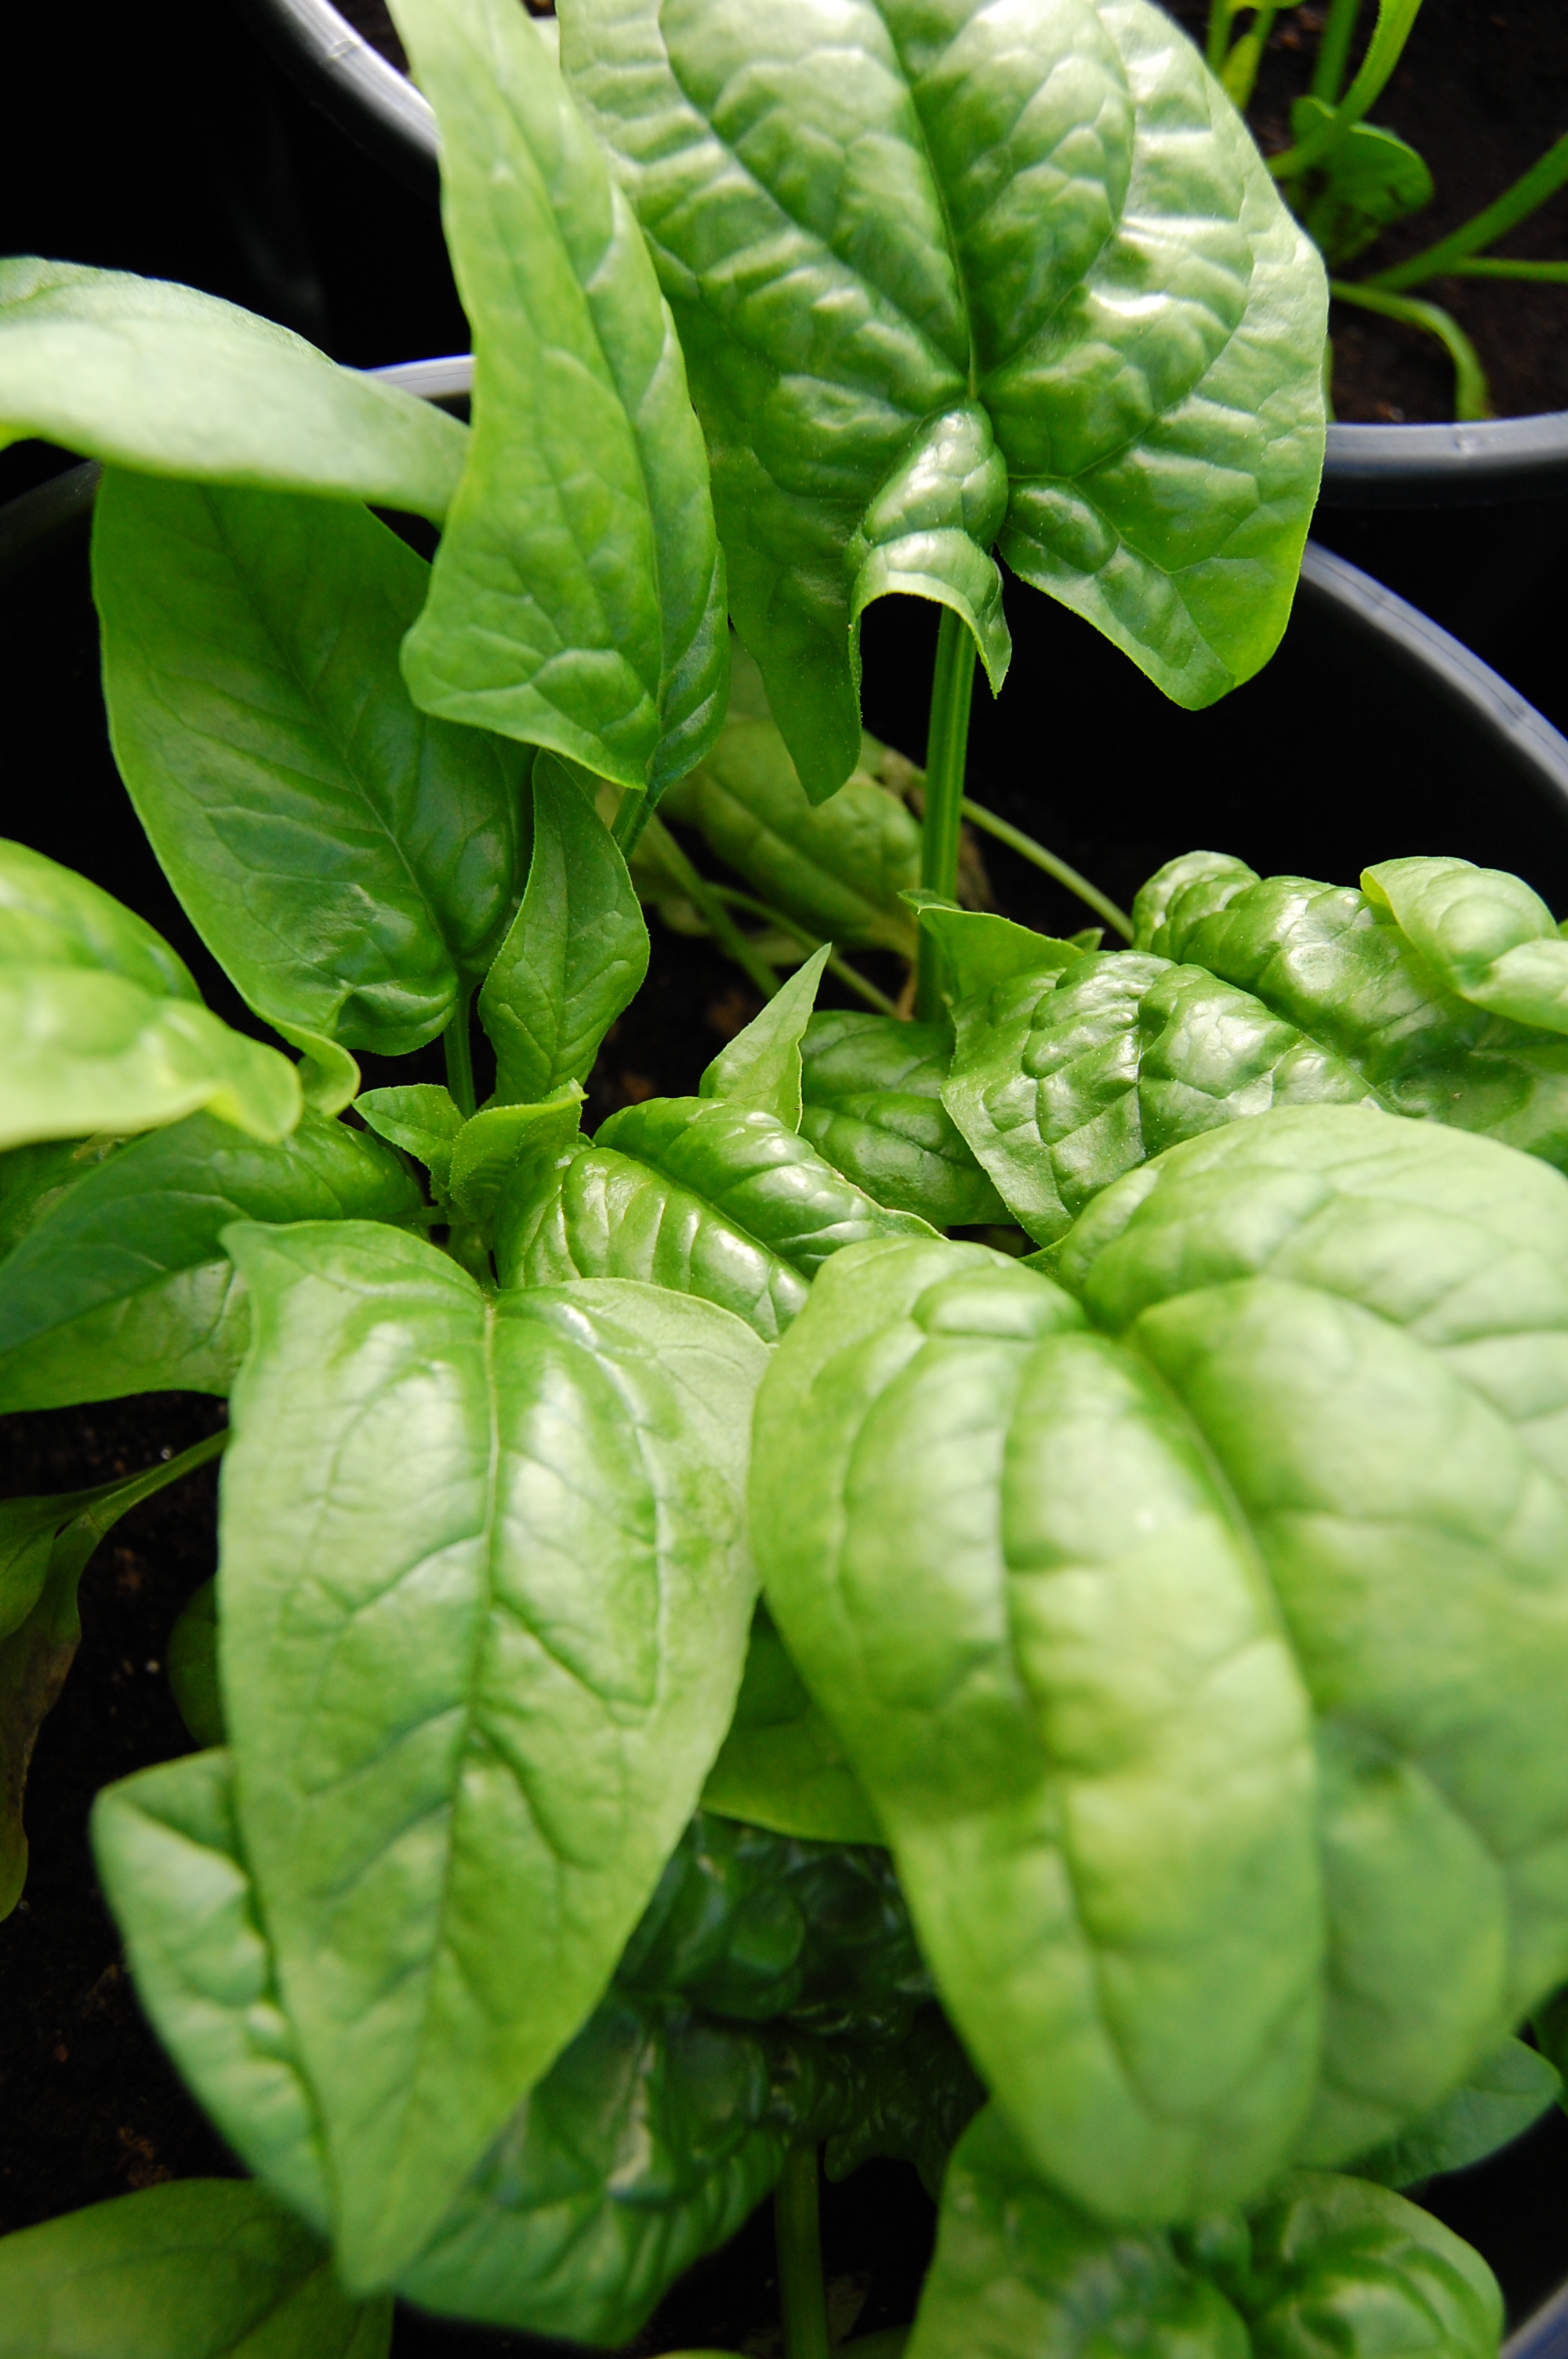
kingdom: Plantae
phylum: Tracheophyta
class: Magnoliopsida
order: Caryophyllales
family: Amaranthaceae
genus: Spinacia
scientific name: Spinacia oleracea
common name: Spinach
